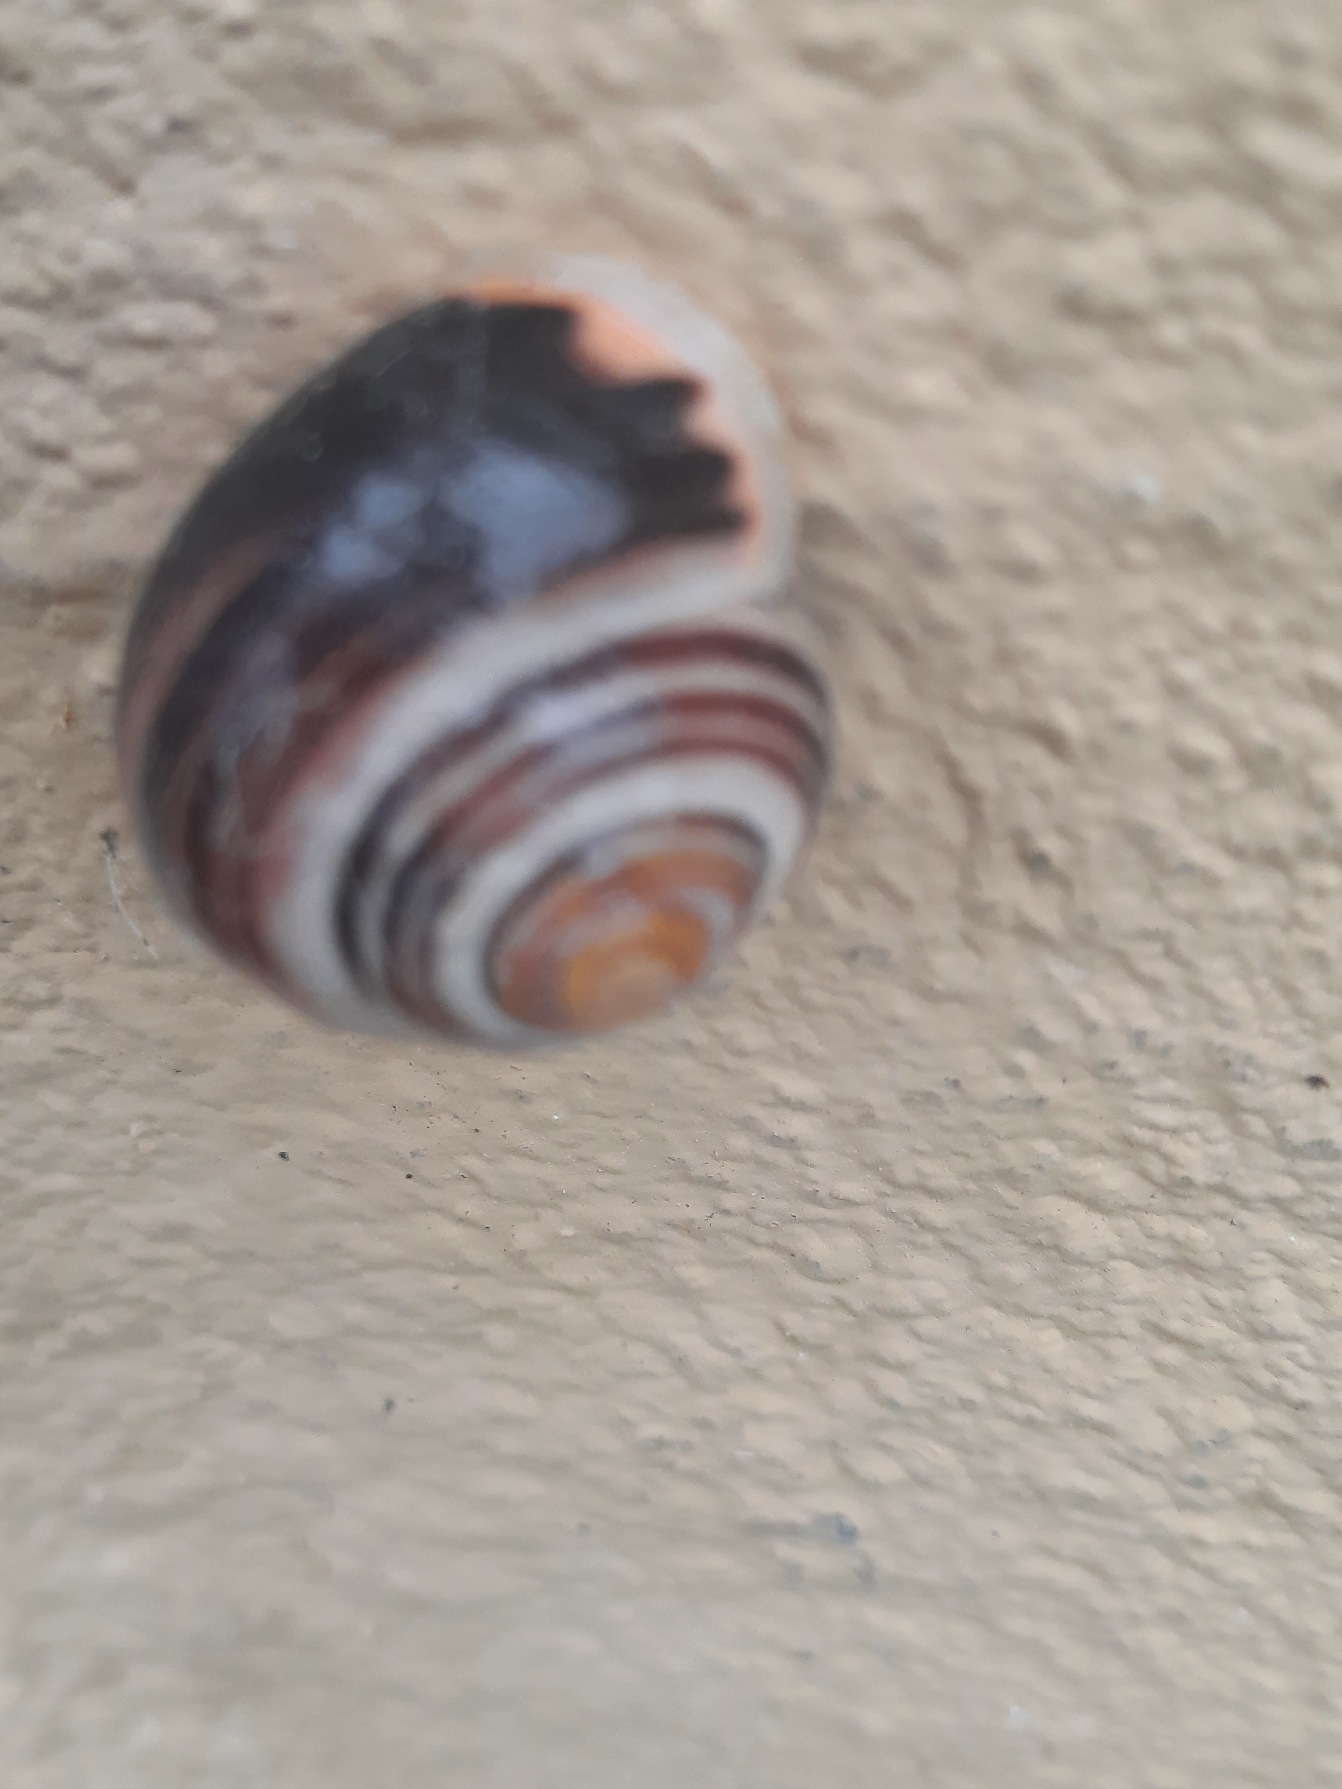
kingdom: Animalia
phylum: Mollusca
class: Gastropoda
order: Stylommatophora
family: Helicidae
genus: Cepaea
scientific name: Cepaea hortensis
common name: Havesnegl
